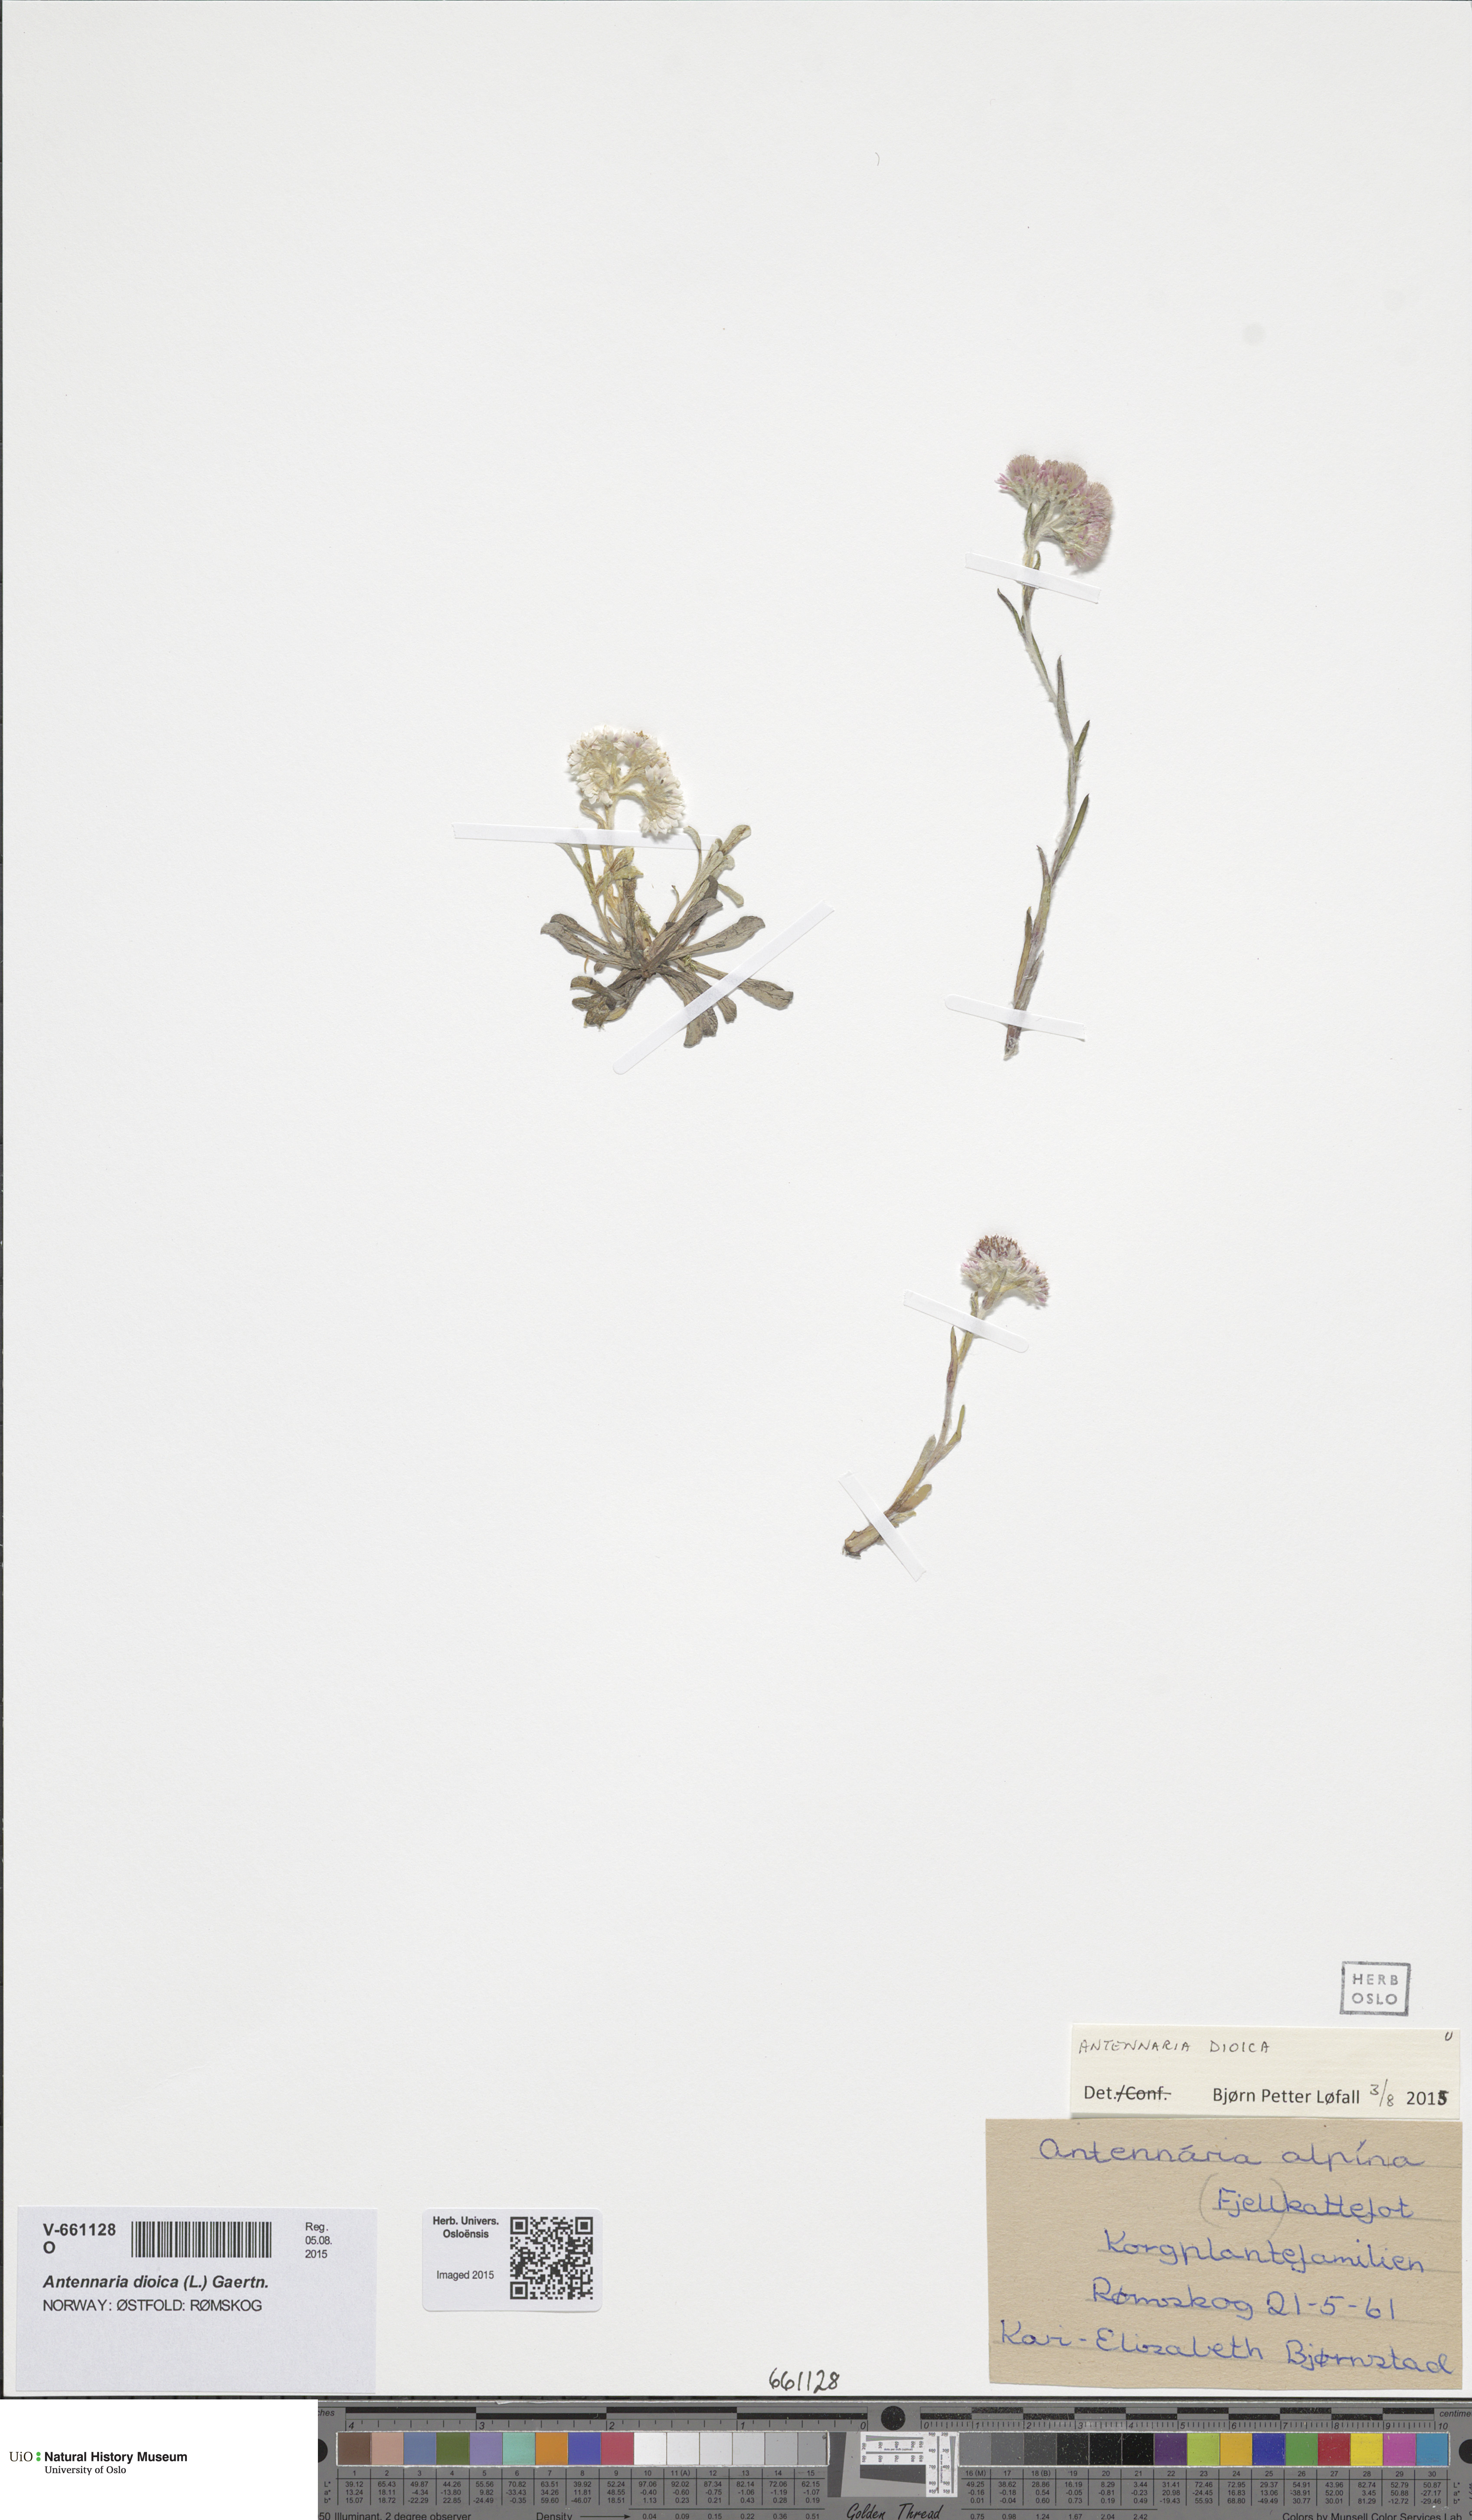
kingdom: Plantae
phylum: Tracheophyta
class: Magnoliopsida
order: Asterales
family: Asteraceae
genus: Antennaria
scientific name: Antennaria dioica
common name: Mountain everlasting
